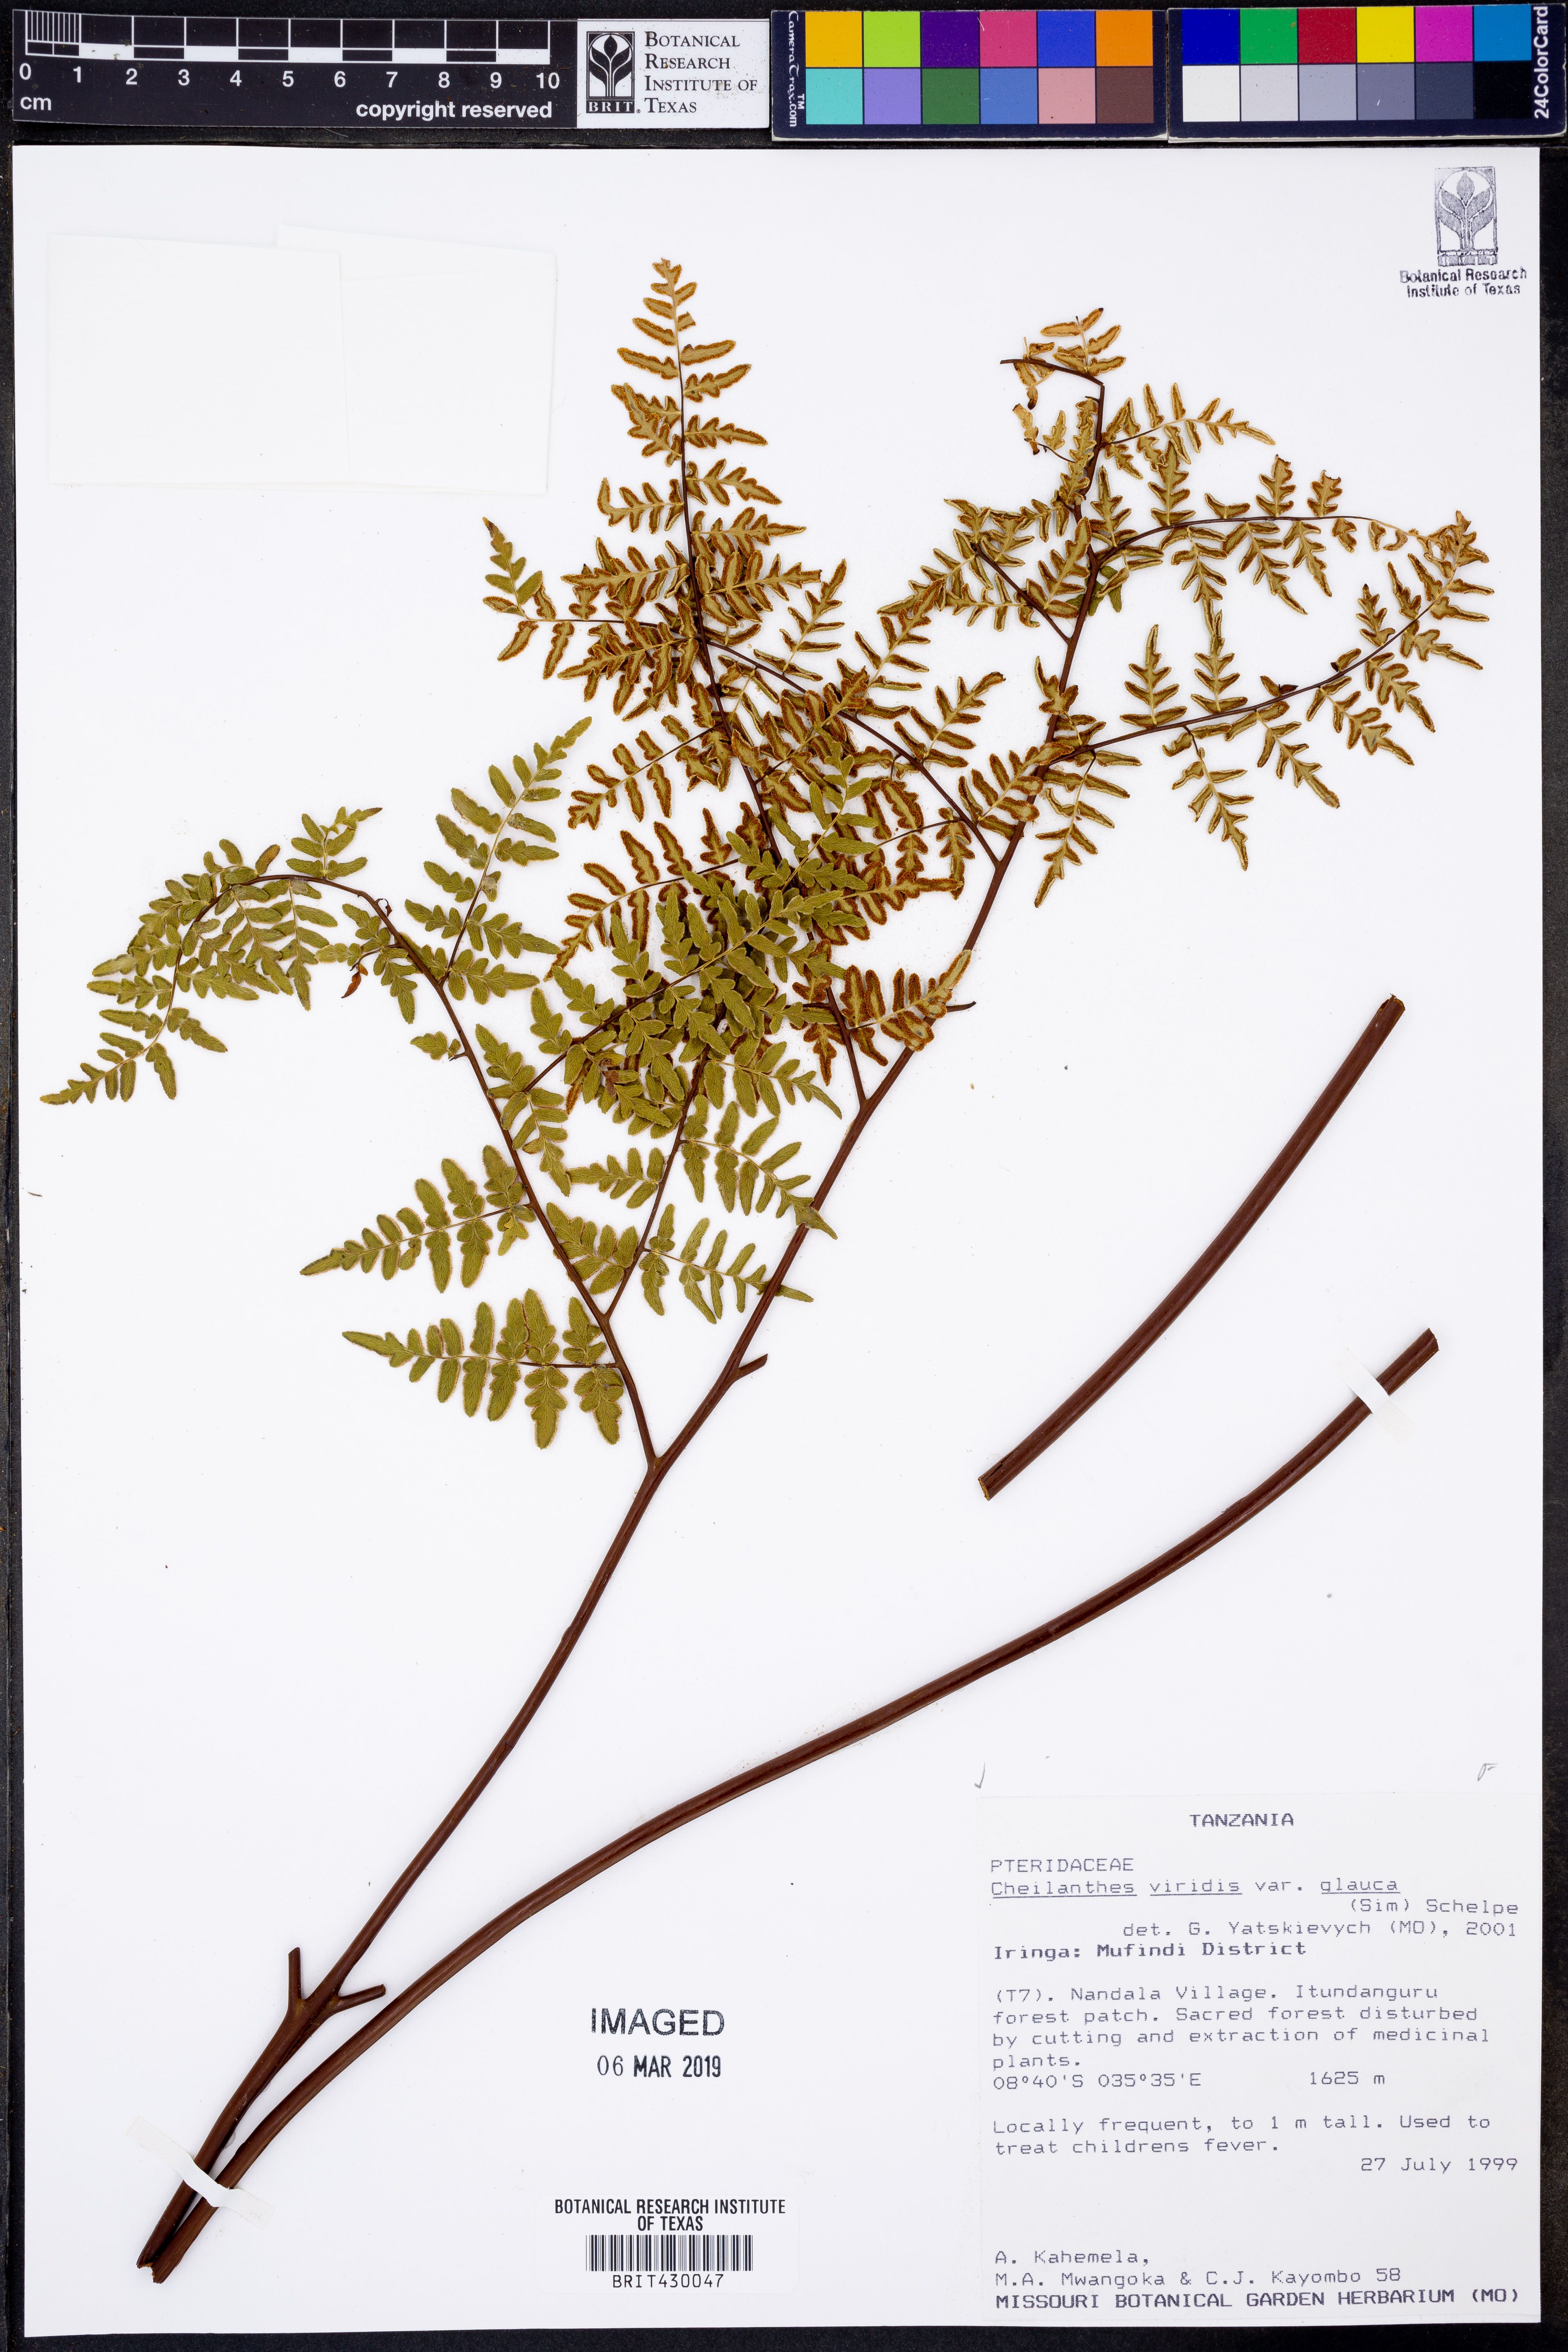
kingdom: Plantae
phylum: Tracheophyta
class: Polypodiopsida
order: Polypodiales
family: Pteridaceae
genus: Cheilanthes
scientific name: Cheilanthes viridis
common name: Green cliffbrake
